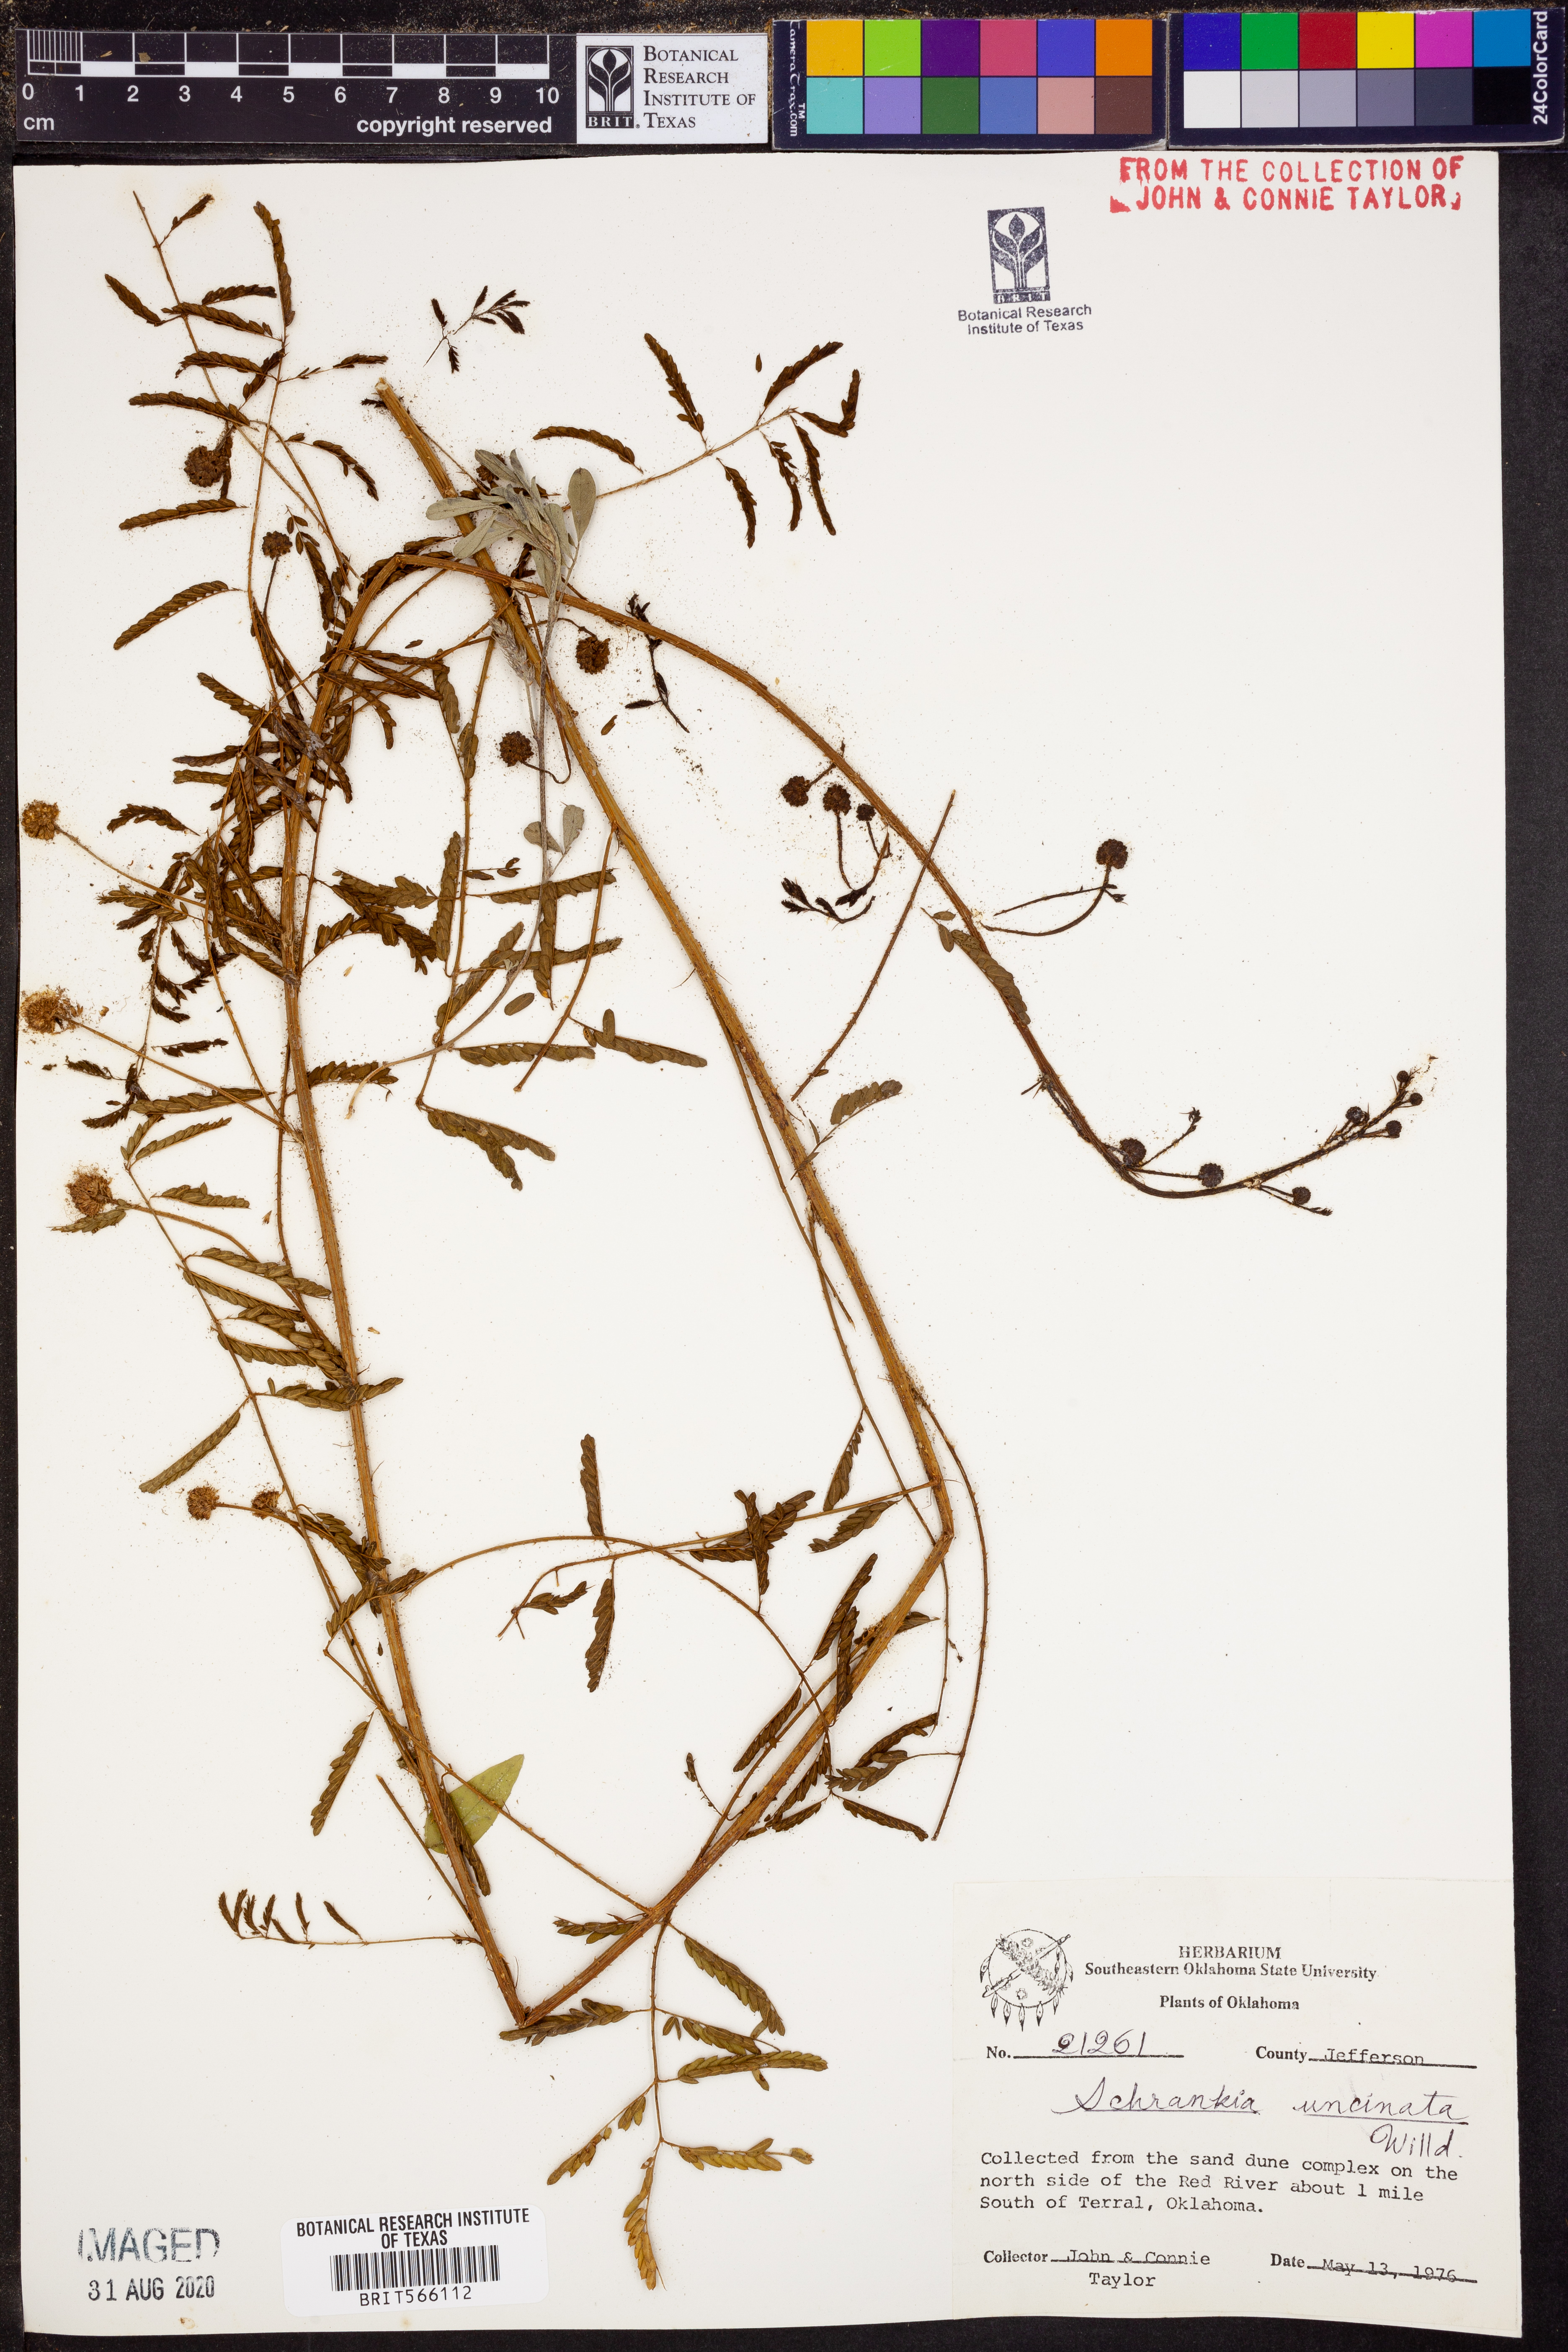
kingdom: Plantae
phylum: Tracheophyta
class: Magnoliopsida
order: Fabales
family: Fabaceae
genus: Mimosa
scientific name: Mimosa quadrivalvis
